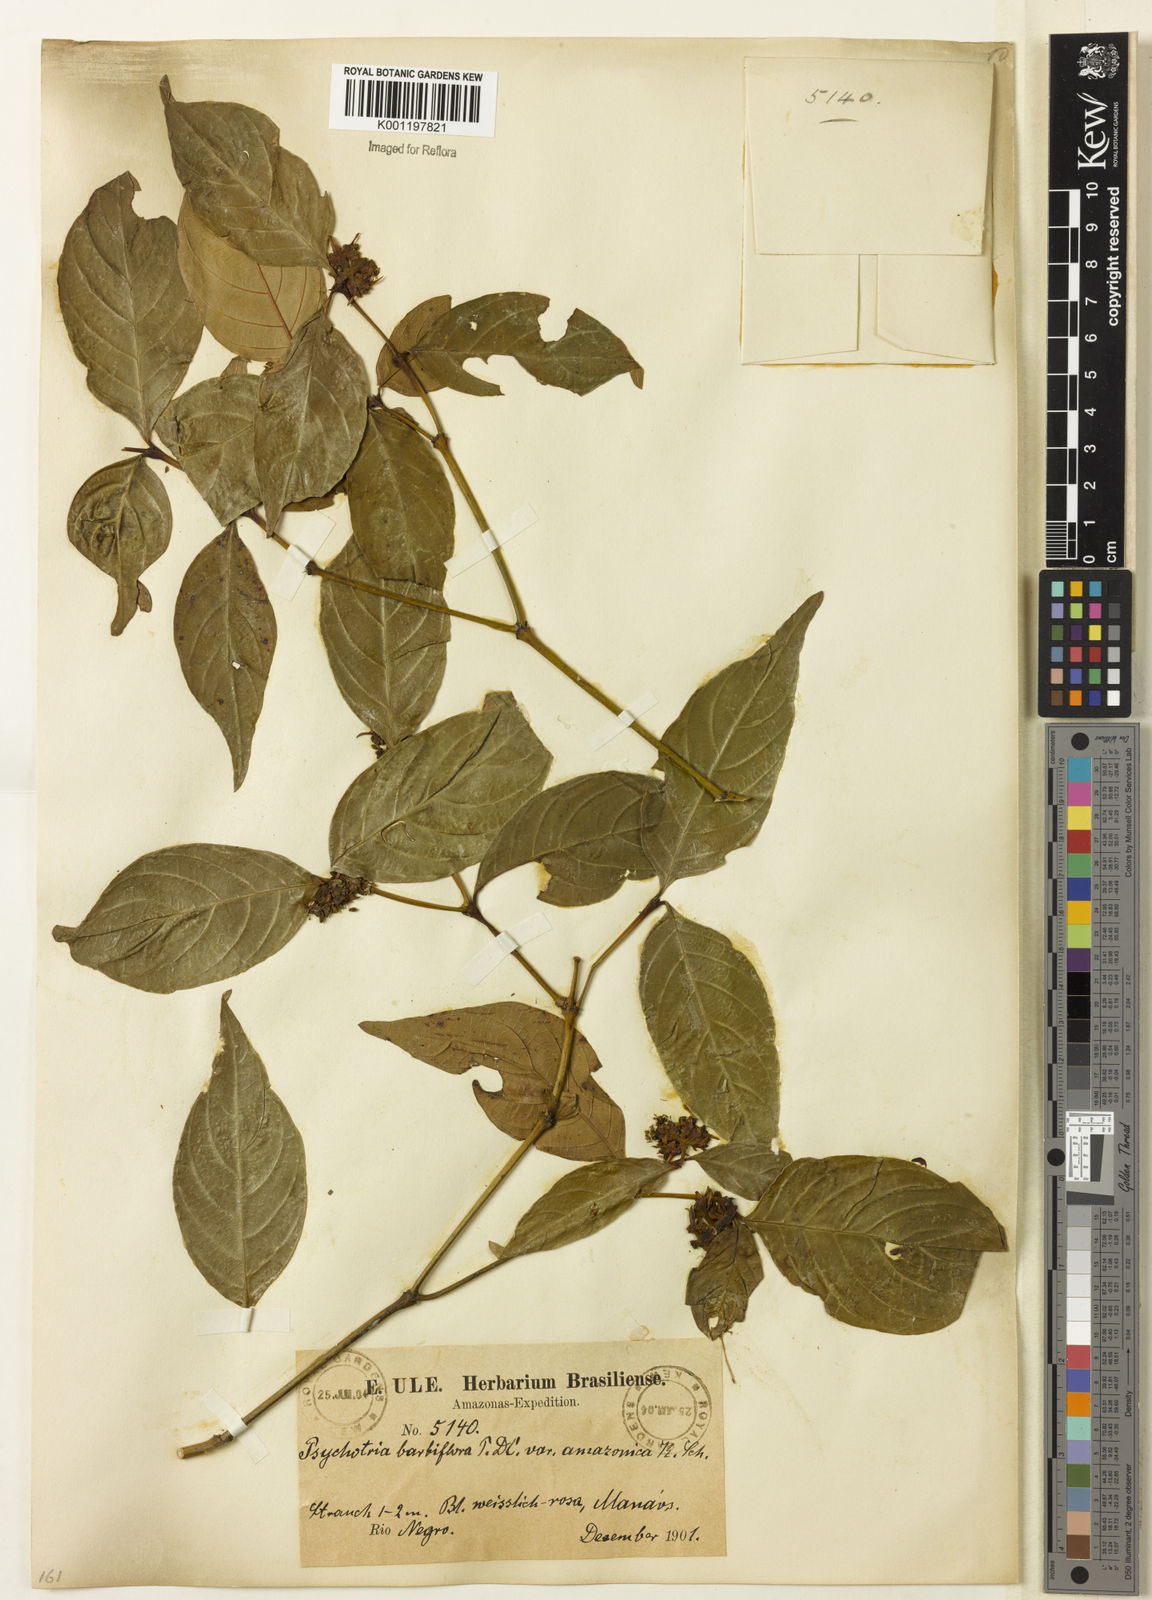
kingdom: Plantae
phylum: Tracheophyta
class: Magnoliopsida
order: Gentianales
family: Rubiaceae
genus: Psychotria
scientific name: Psychotria
